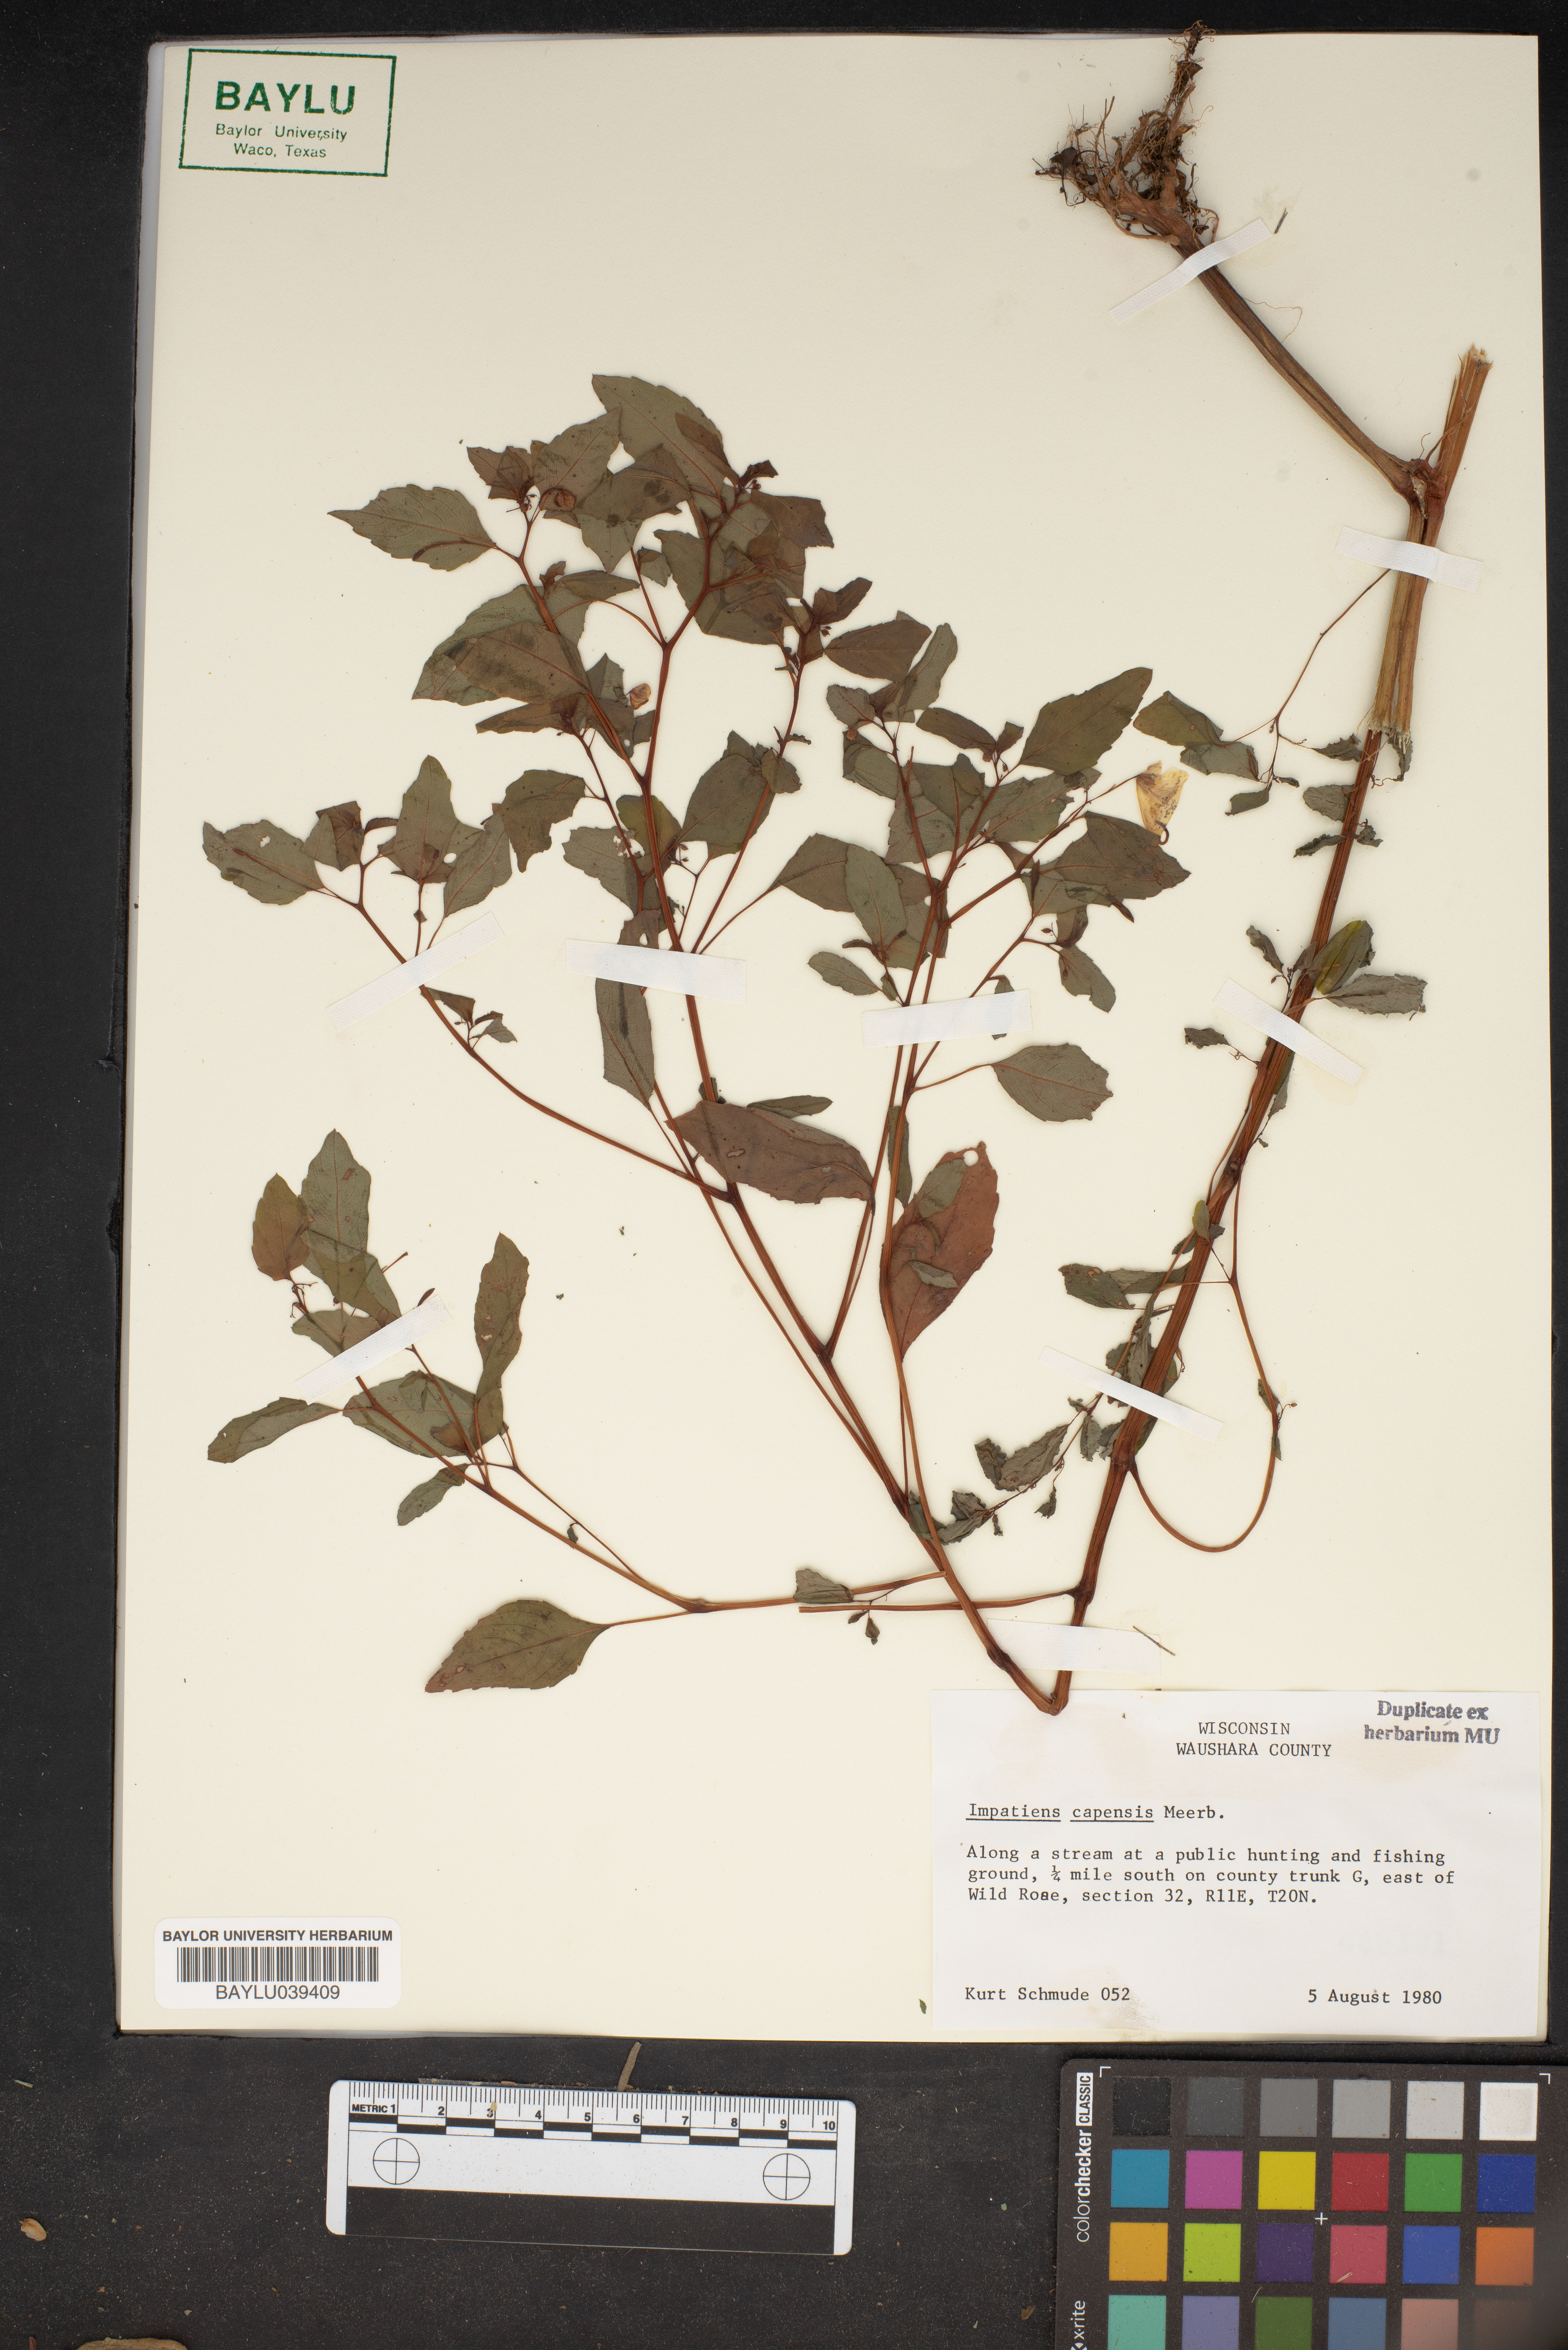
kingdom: Plantae
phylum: Tracheophyta
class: Magnoliopsida
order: Ericales
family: Balsaminaceae
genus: Impatiens
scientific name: Impatiens capensis
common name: Orange balsam
